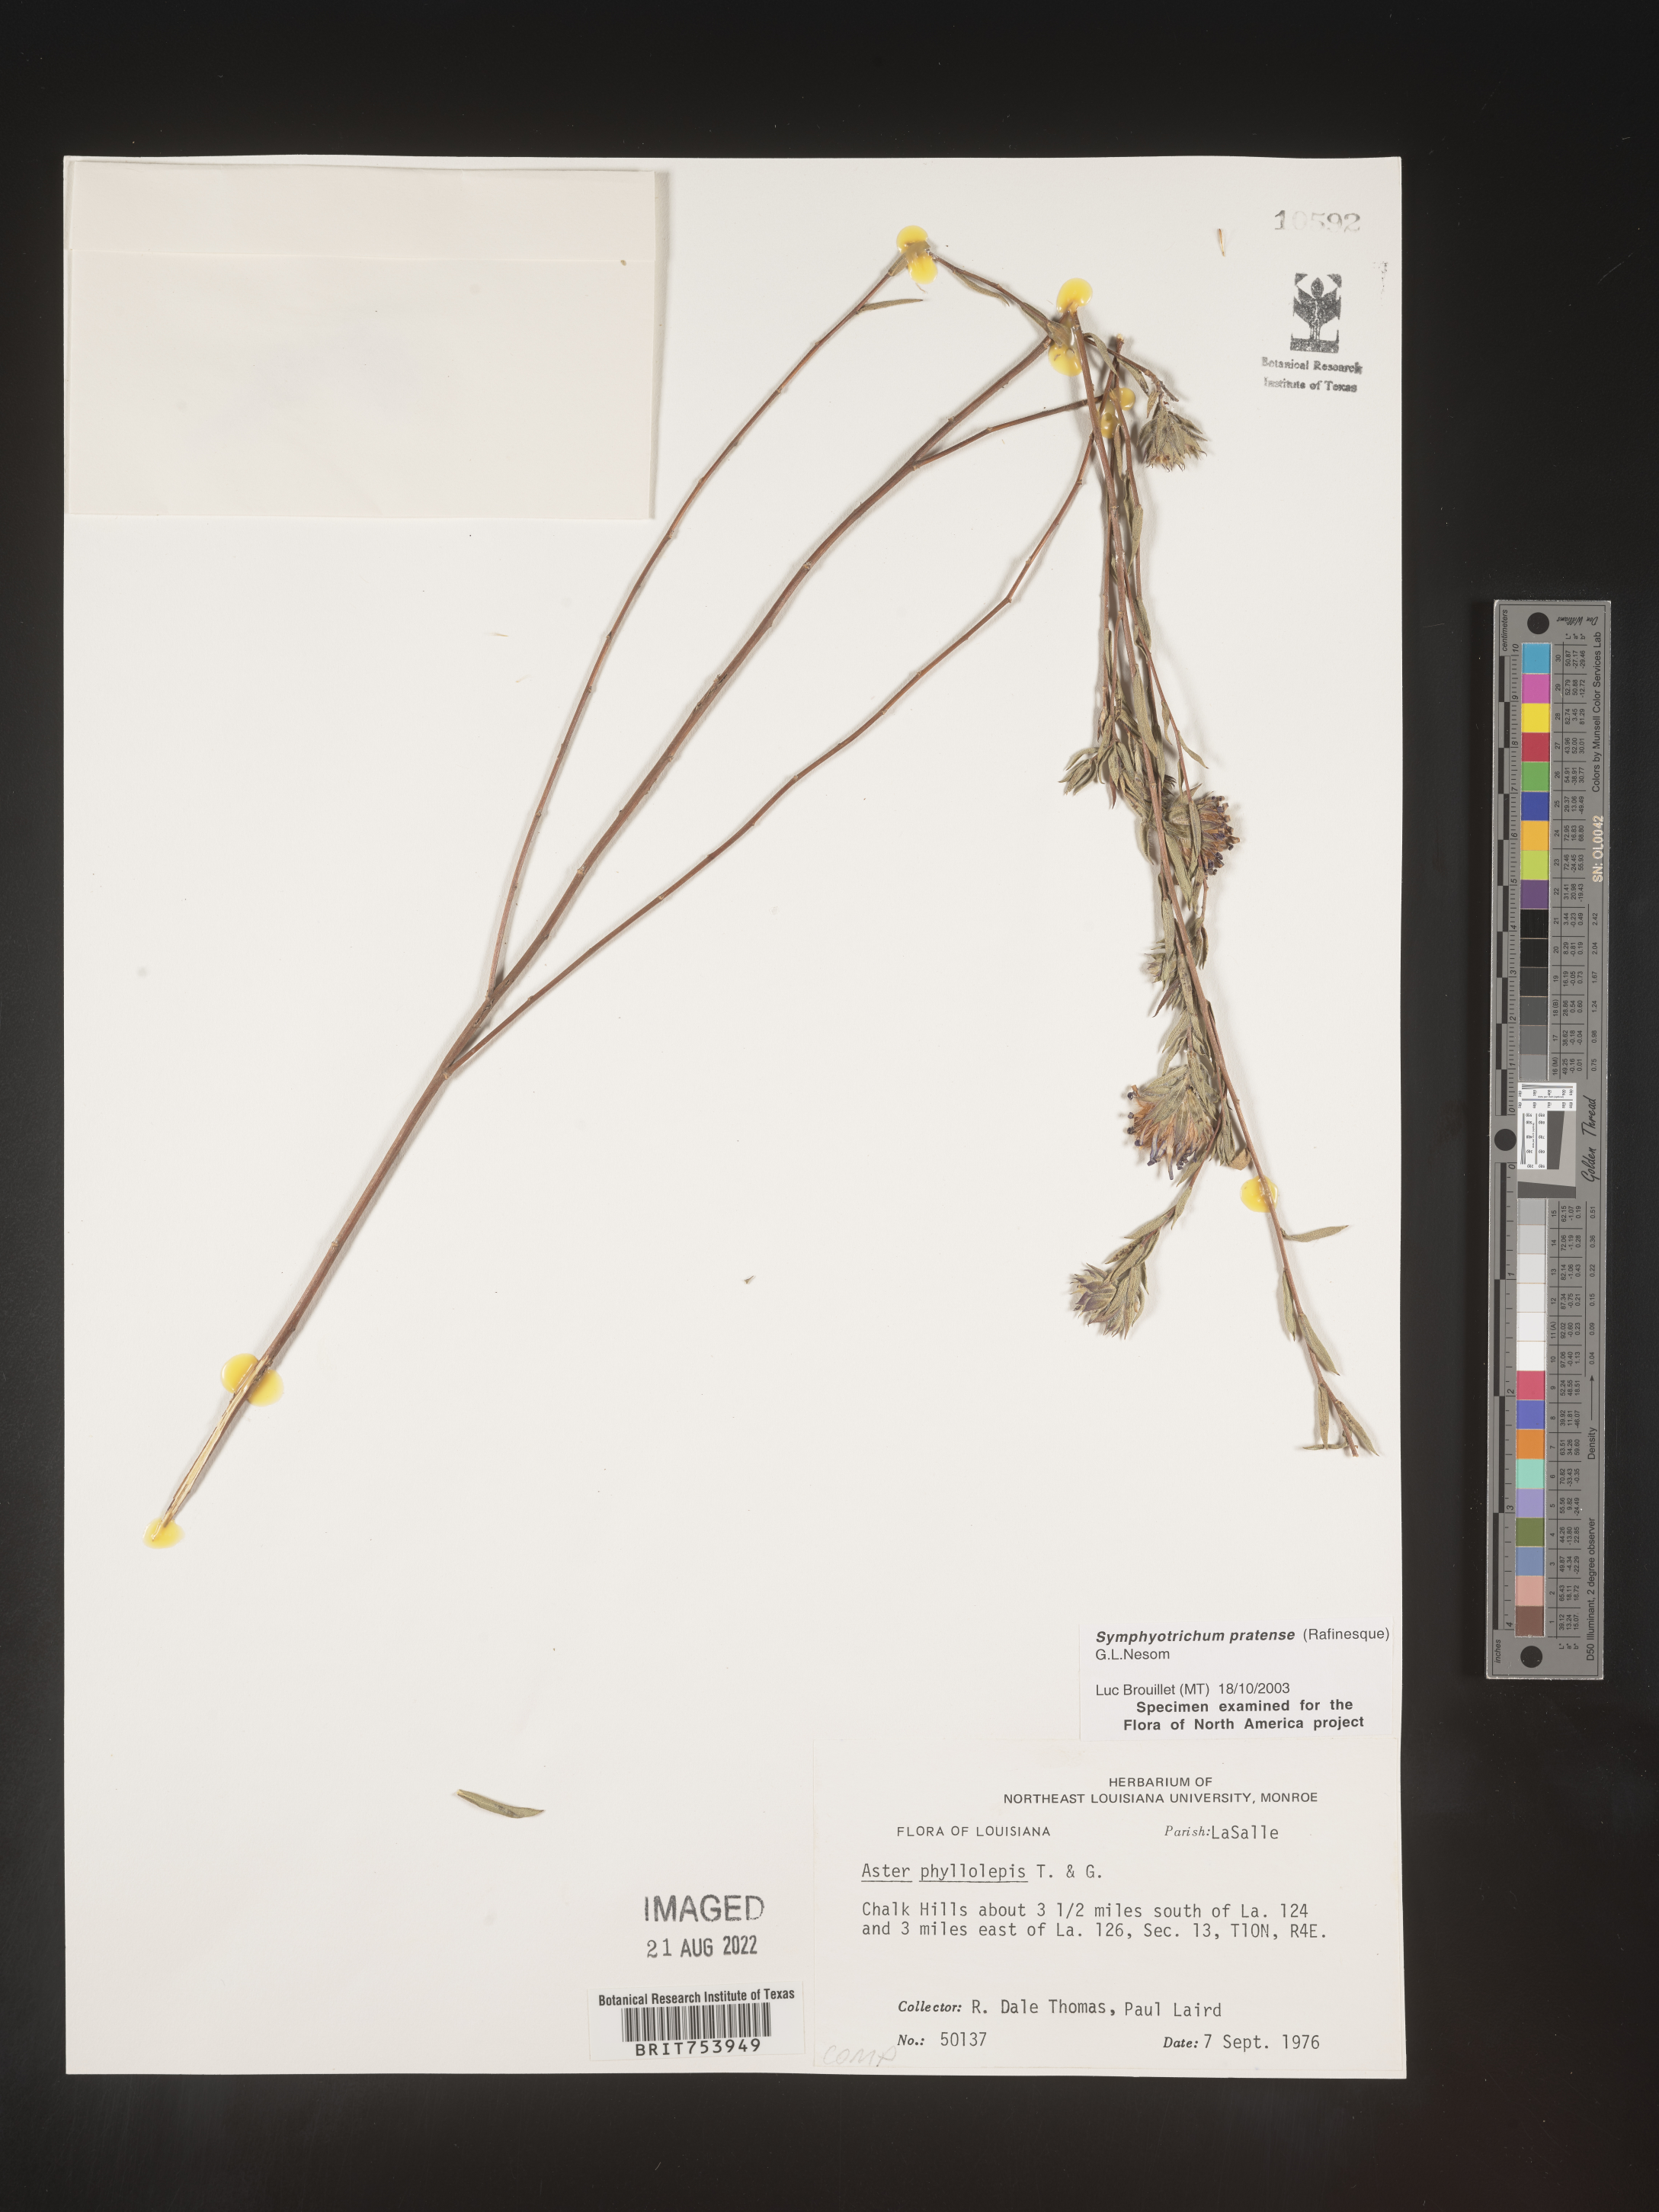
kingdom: Plantae
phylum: Tracheophyta
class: Magnoliopsida
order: Asterales
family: Asteraceae
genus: Symphyotrichum
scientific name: Symphyotrichum pratense
